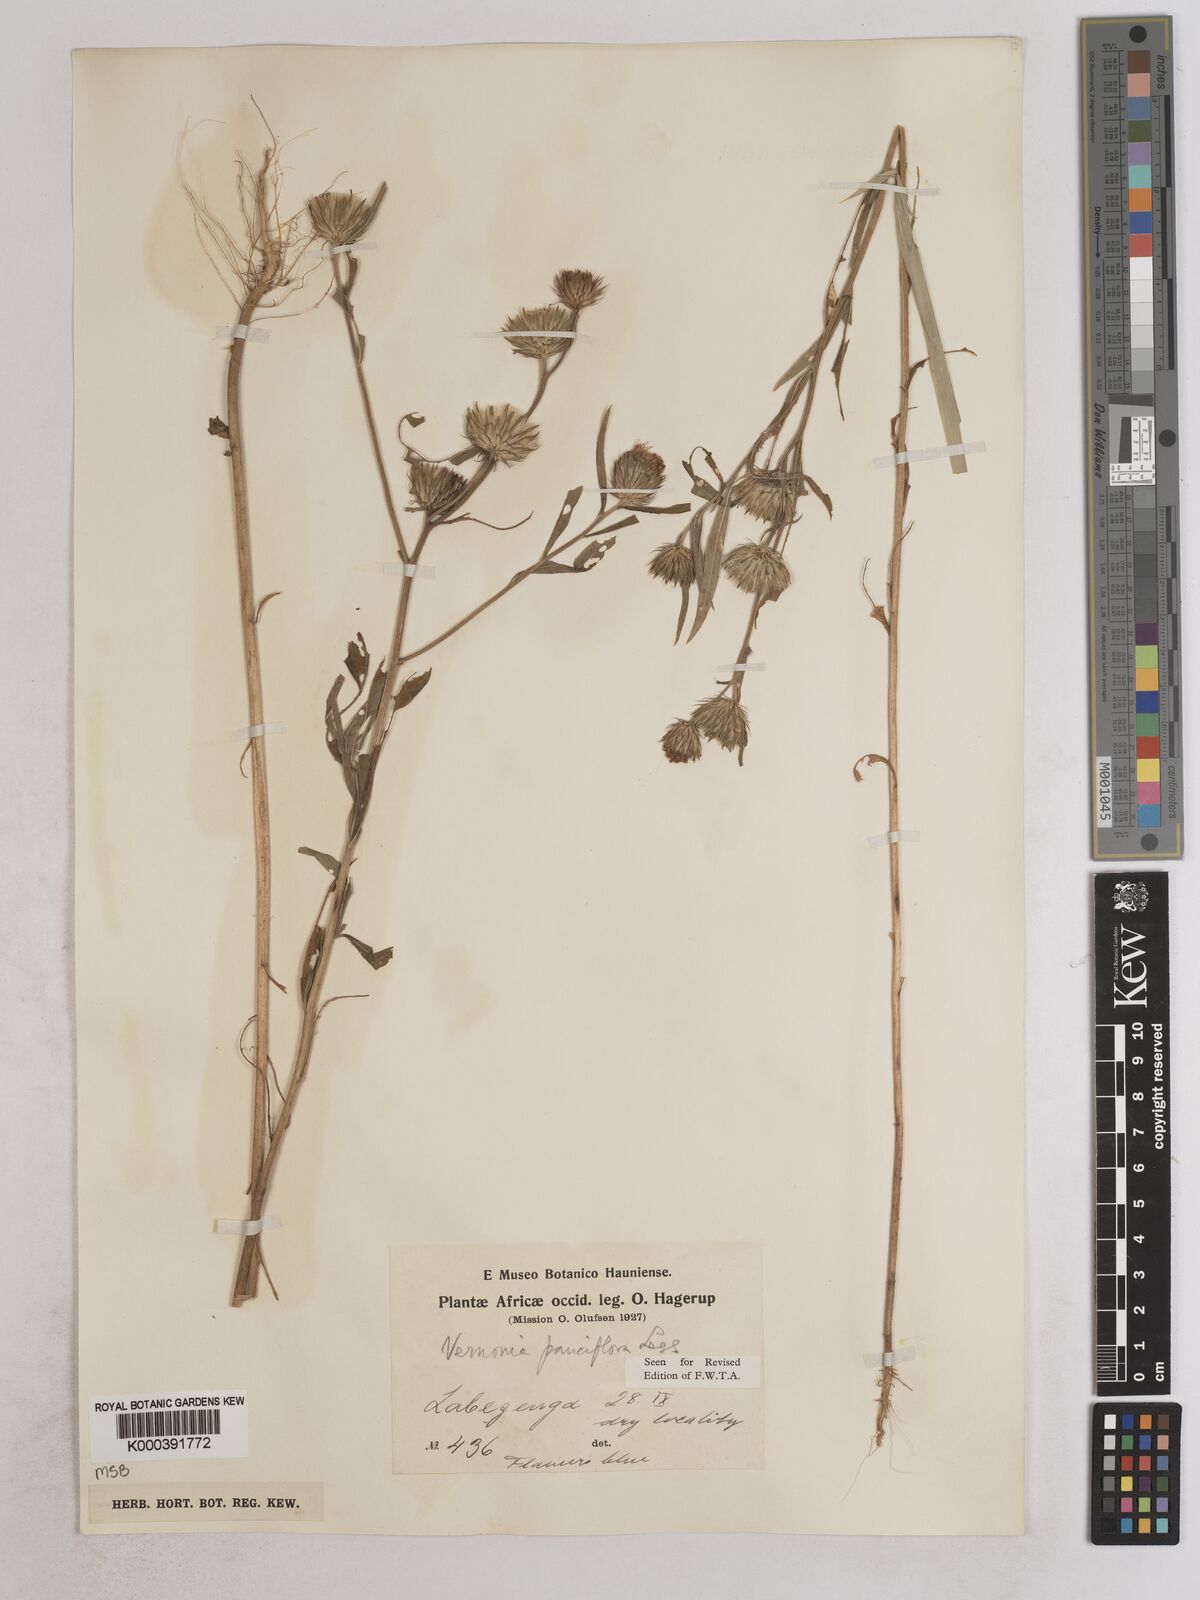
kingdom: Plantae
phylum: Tracheophyta
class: Magnoliopsida
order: Asterales
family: Asteraceae
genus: Vernonia
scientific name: Vernonia galamensis
